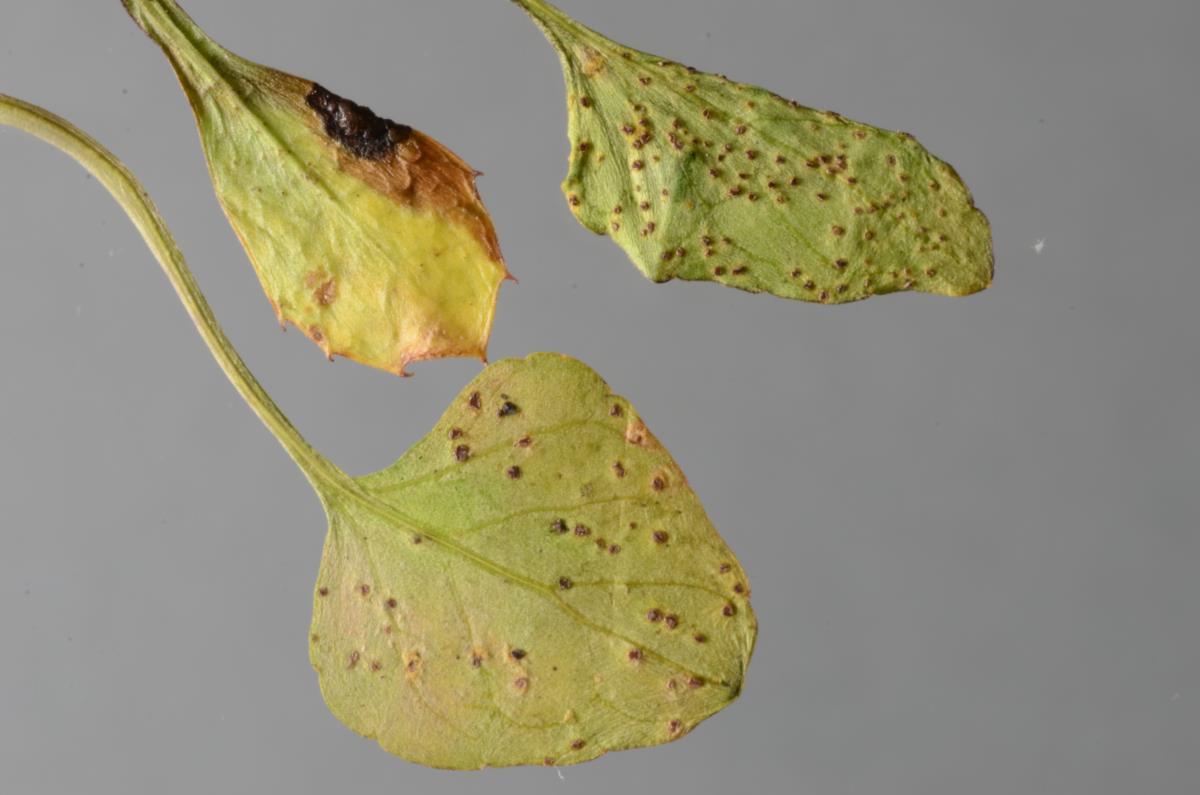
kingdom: Fungi
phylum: Basidiomycota
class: Pucciniomycetes
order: Pucciniales
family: Pucciniaceae
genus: Puccinia
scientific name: Puccinia hederaceae
